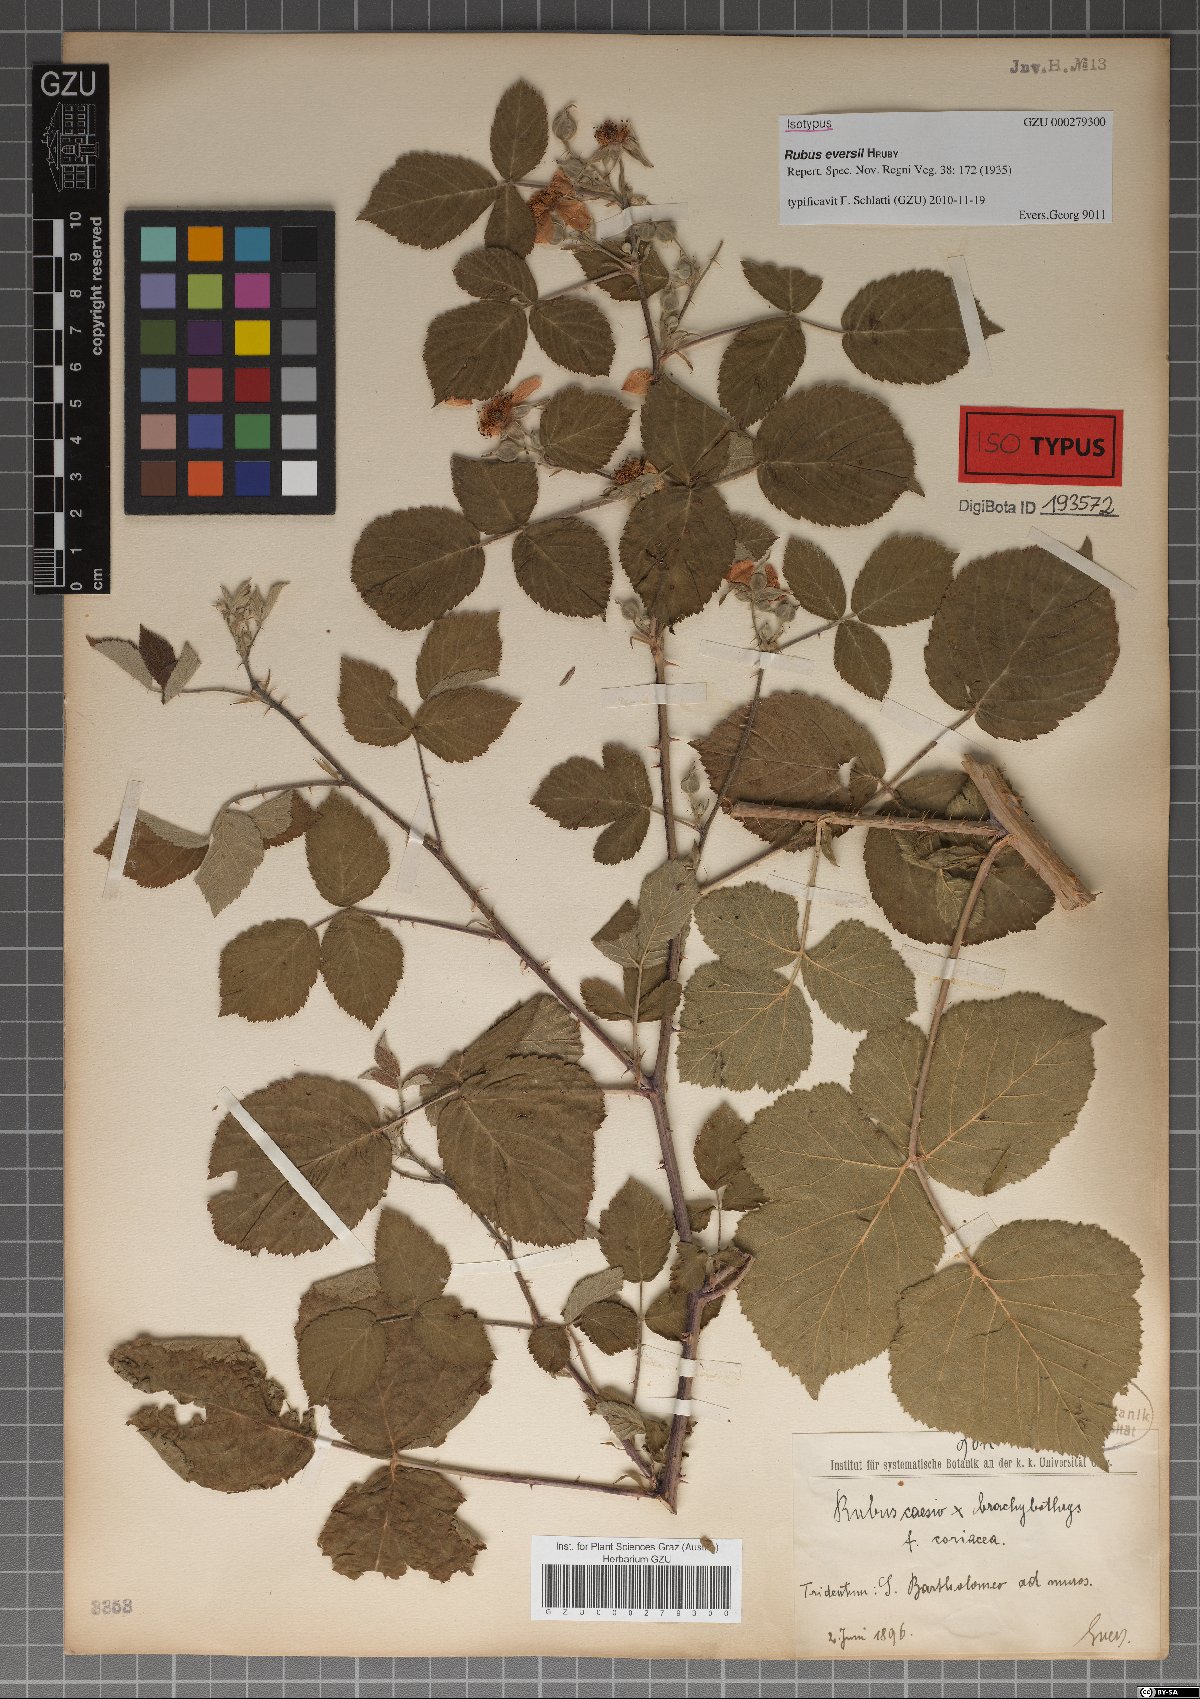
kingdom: Plantae
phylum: Tracheophyta
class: Magnoliopsida
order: Rosales
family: Rosaceae
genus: Rubus
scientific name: Rubus eversii
